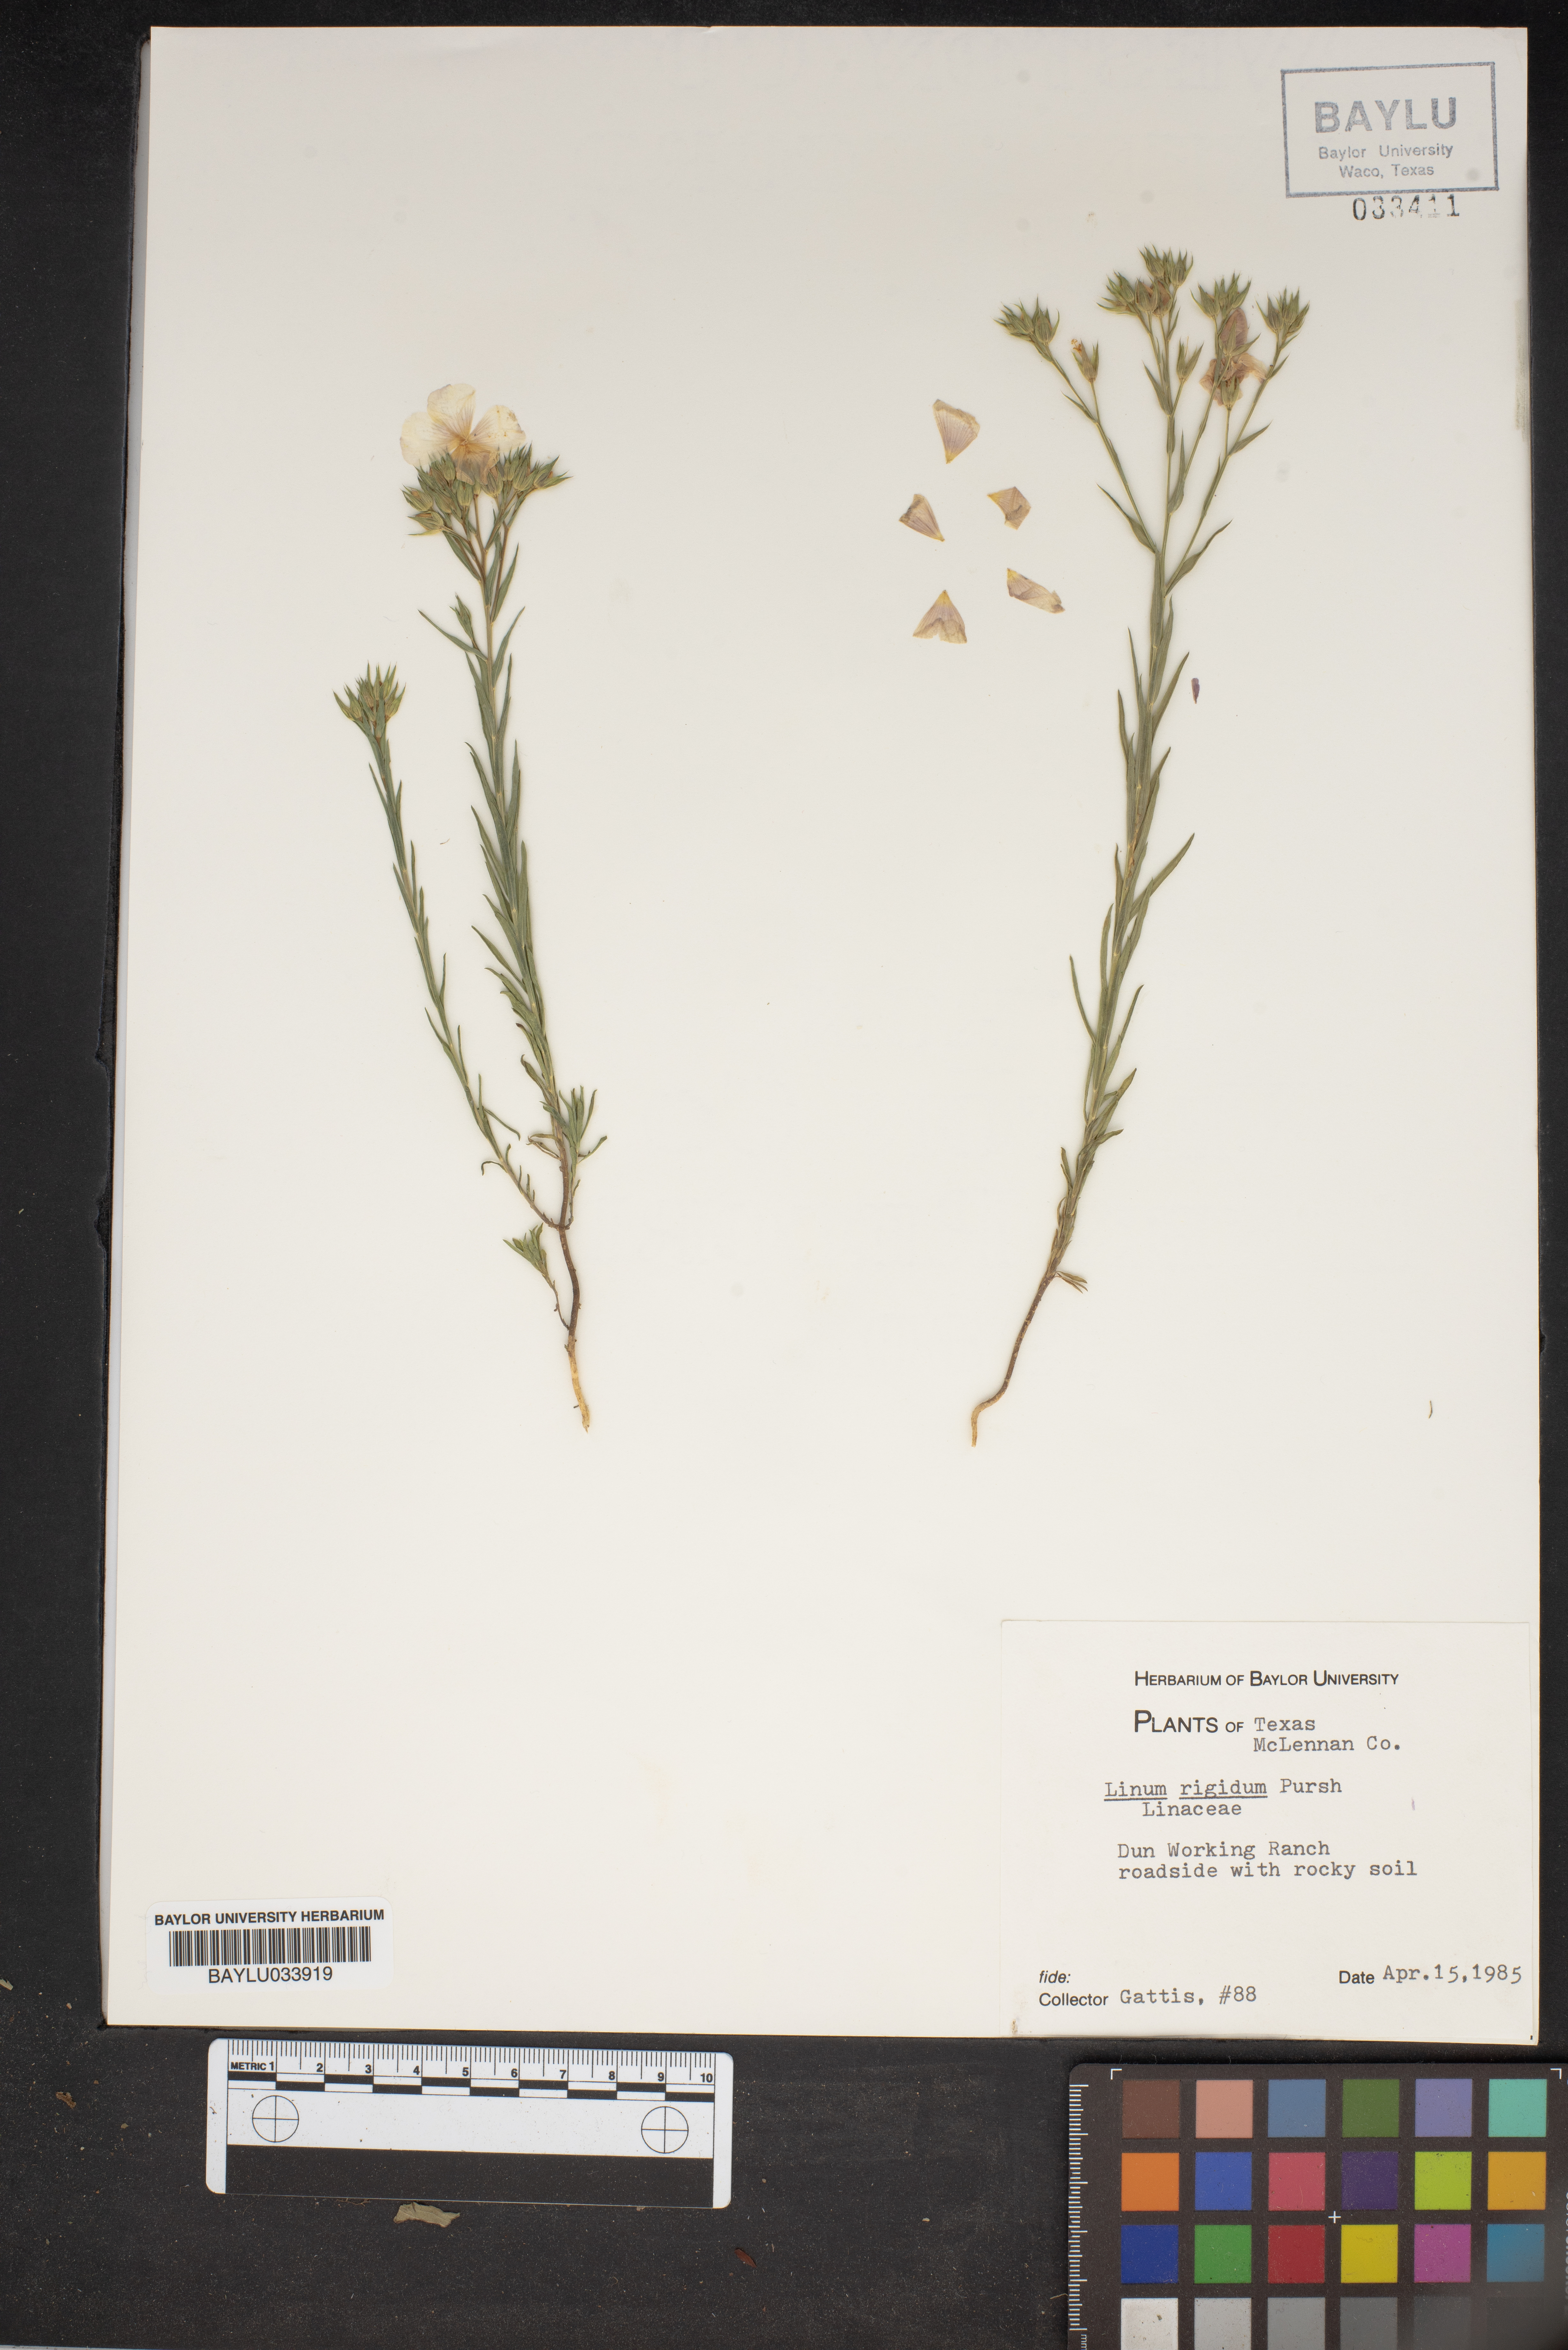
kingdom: Plantae
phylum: Tracheophyta
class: Magnoliopsida
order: Malpighiales
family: Linaceae
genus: Linum
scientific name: Linum rigidum
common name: Stiff-stem flax
